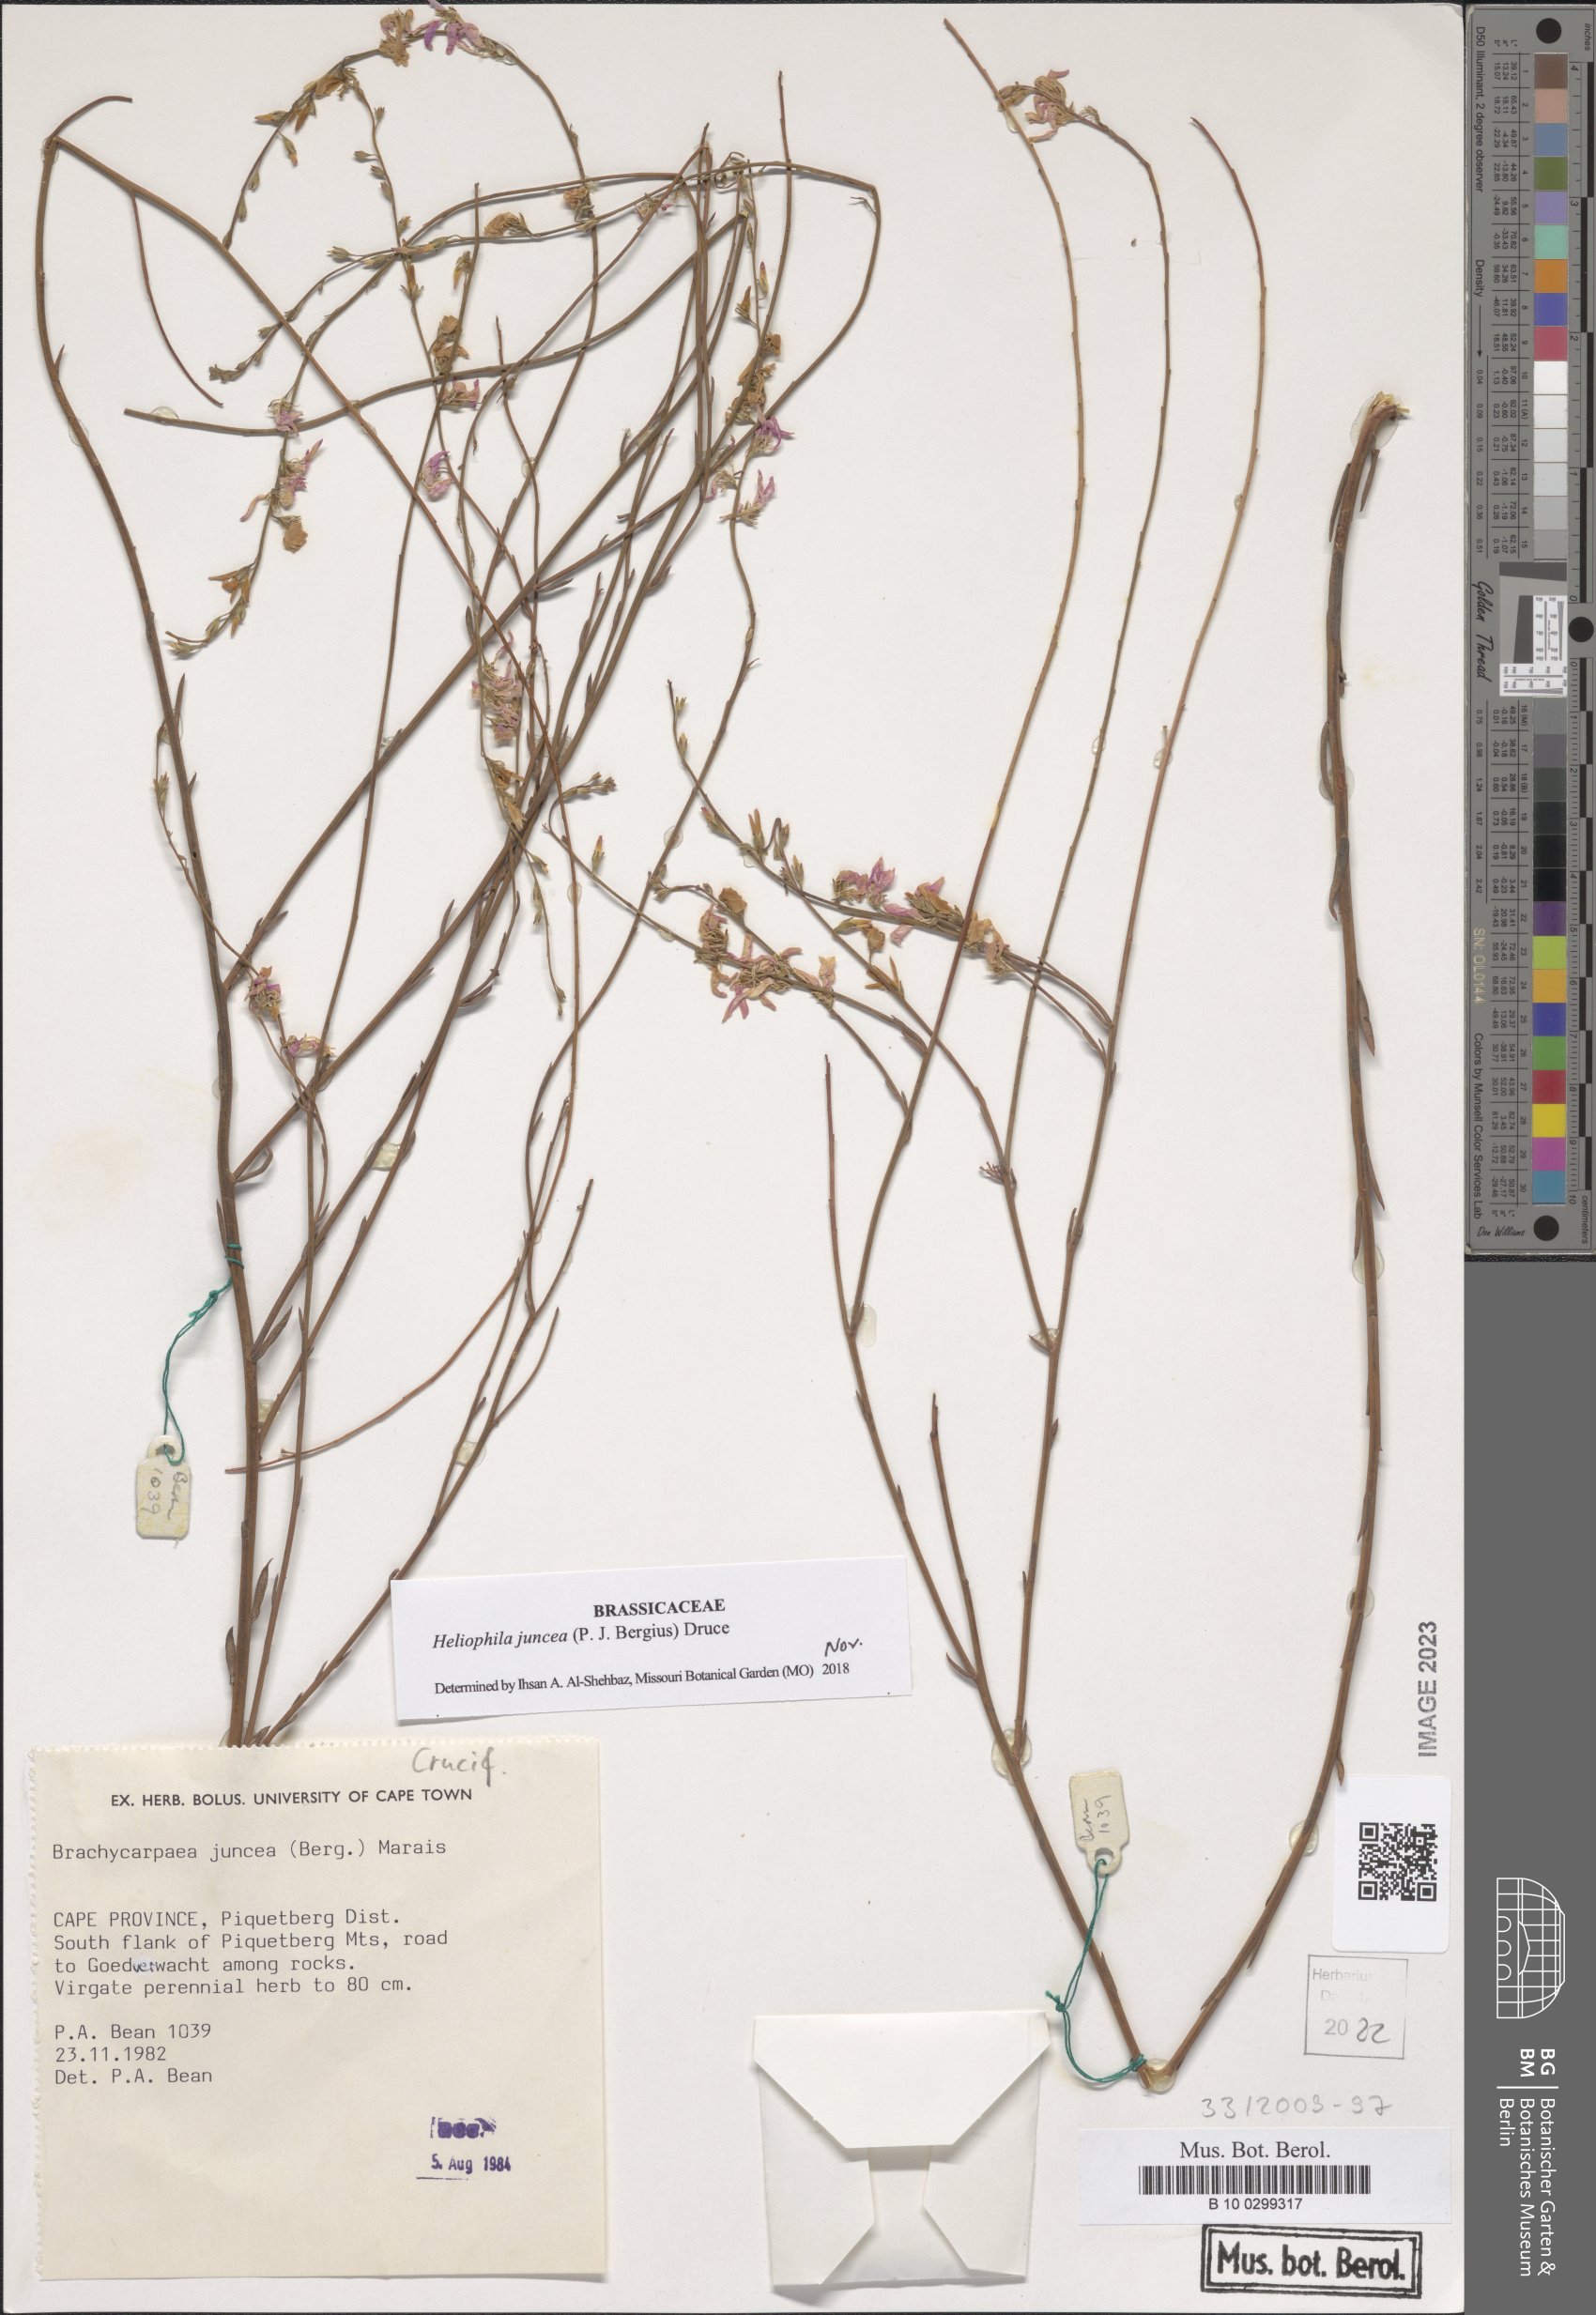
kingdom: Plantae
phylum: Tracheophyta
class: Magnoliopsida
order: Brassicales
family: Brassicaceae
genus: Heliophila
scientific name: Heliophila juncea
